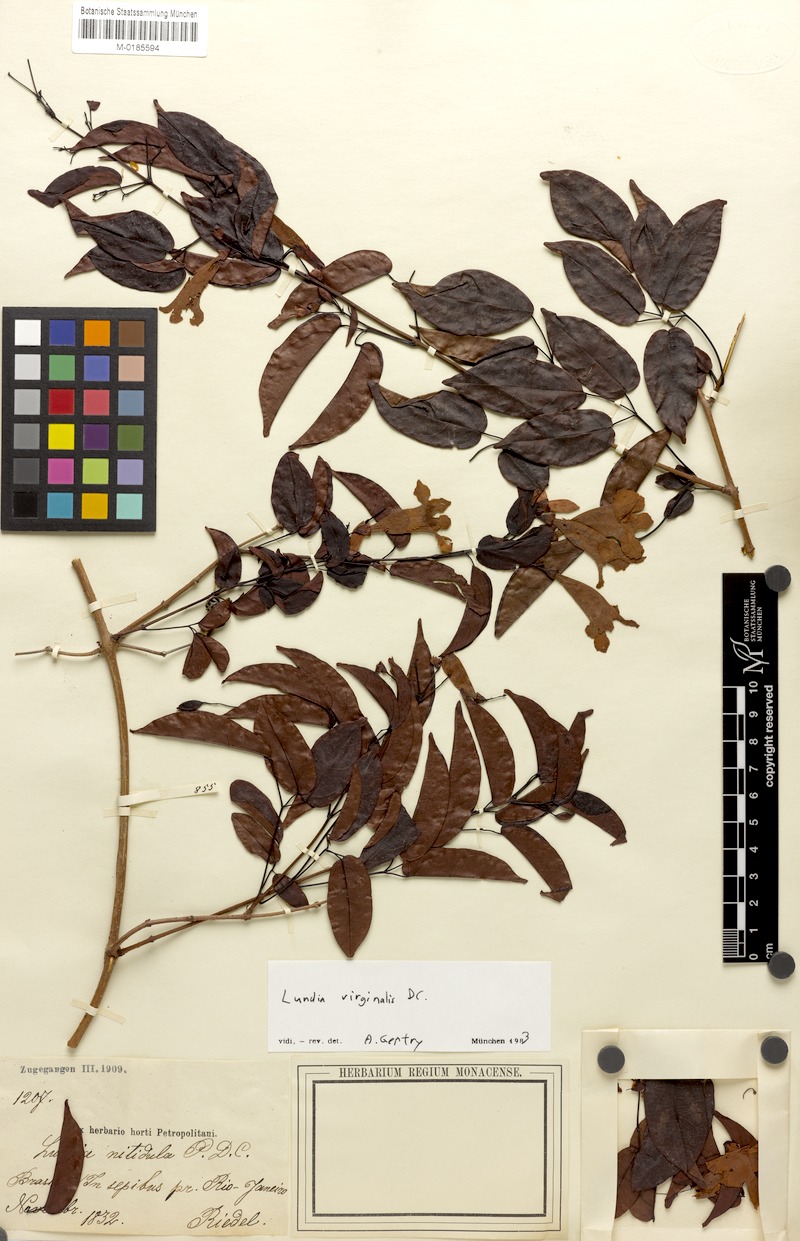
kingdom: Plantae
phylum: Tracheophyta
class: Magnoliopsida
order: Lamiales
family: Bignoniaceae
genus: Lundia
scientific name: Lundia nitidula
